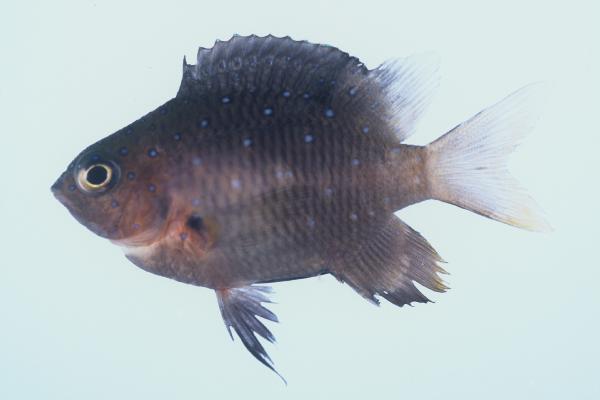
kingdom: Animalia
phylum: Chordata
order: Perciformes
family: Pomacentridae
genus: Stegastes
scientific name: Stegastes pelicieri
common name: Mauritian gregory
